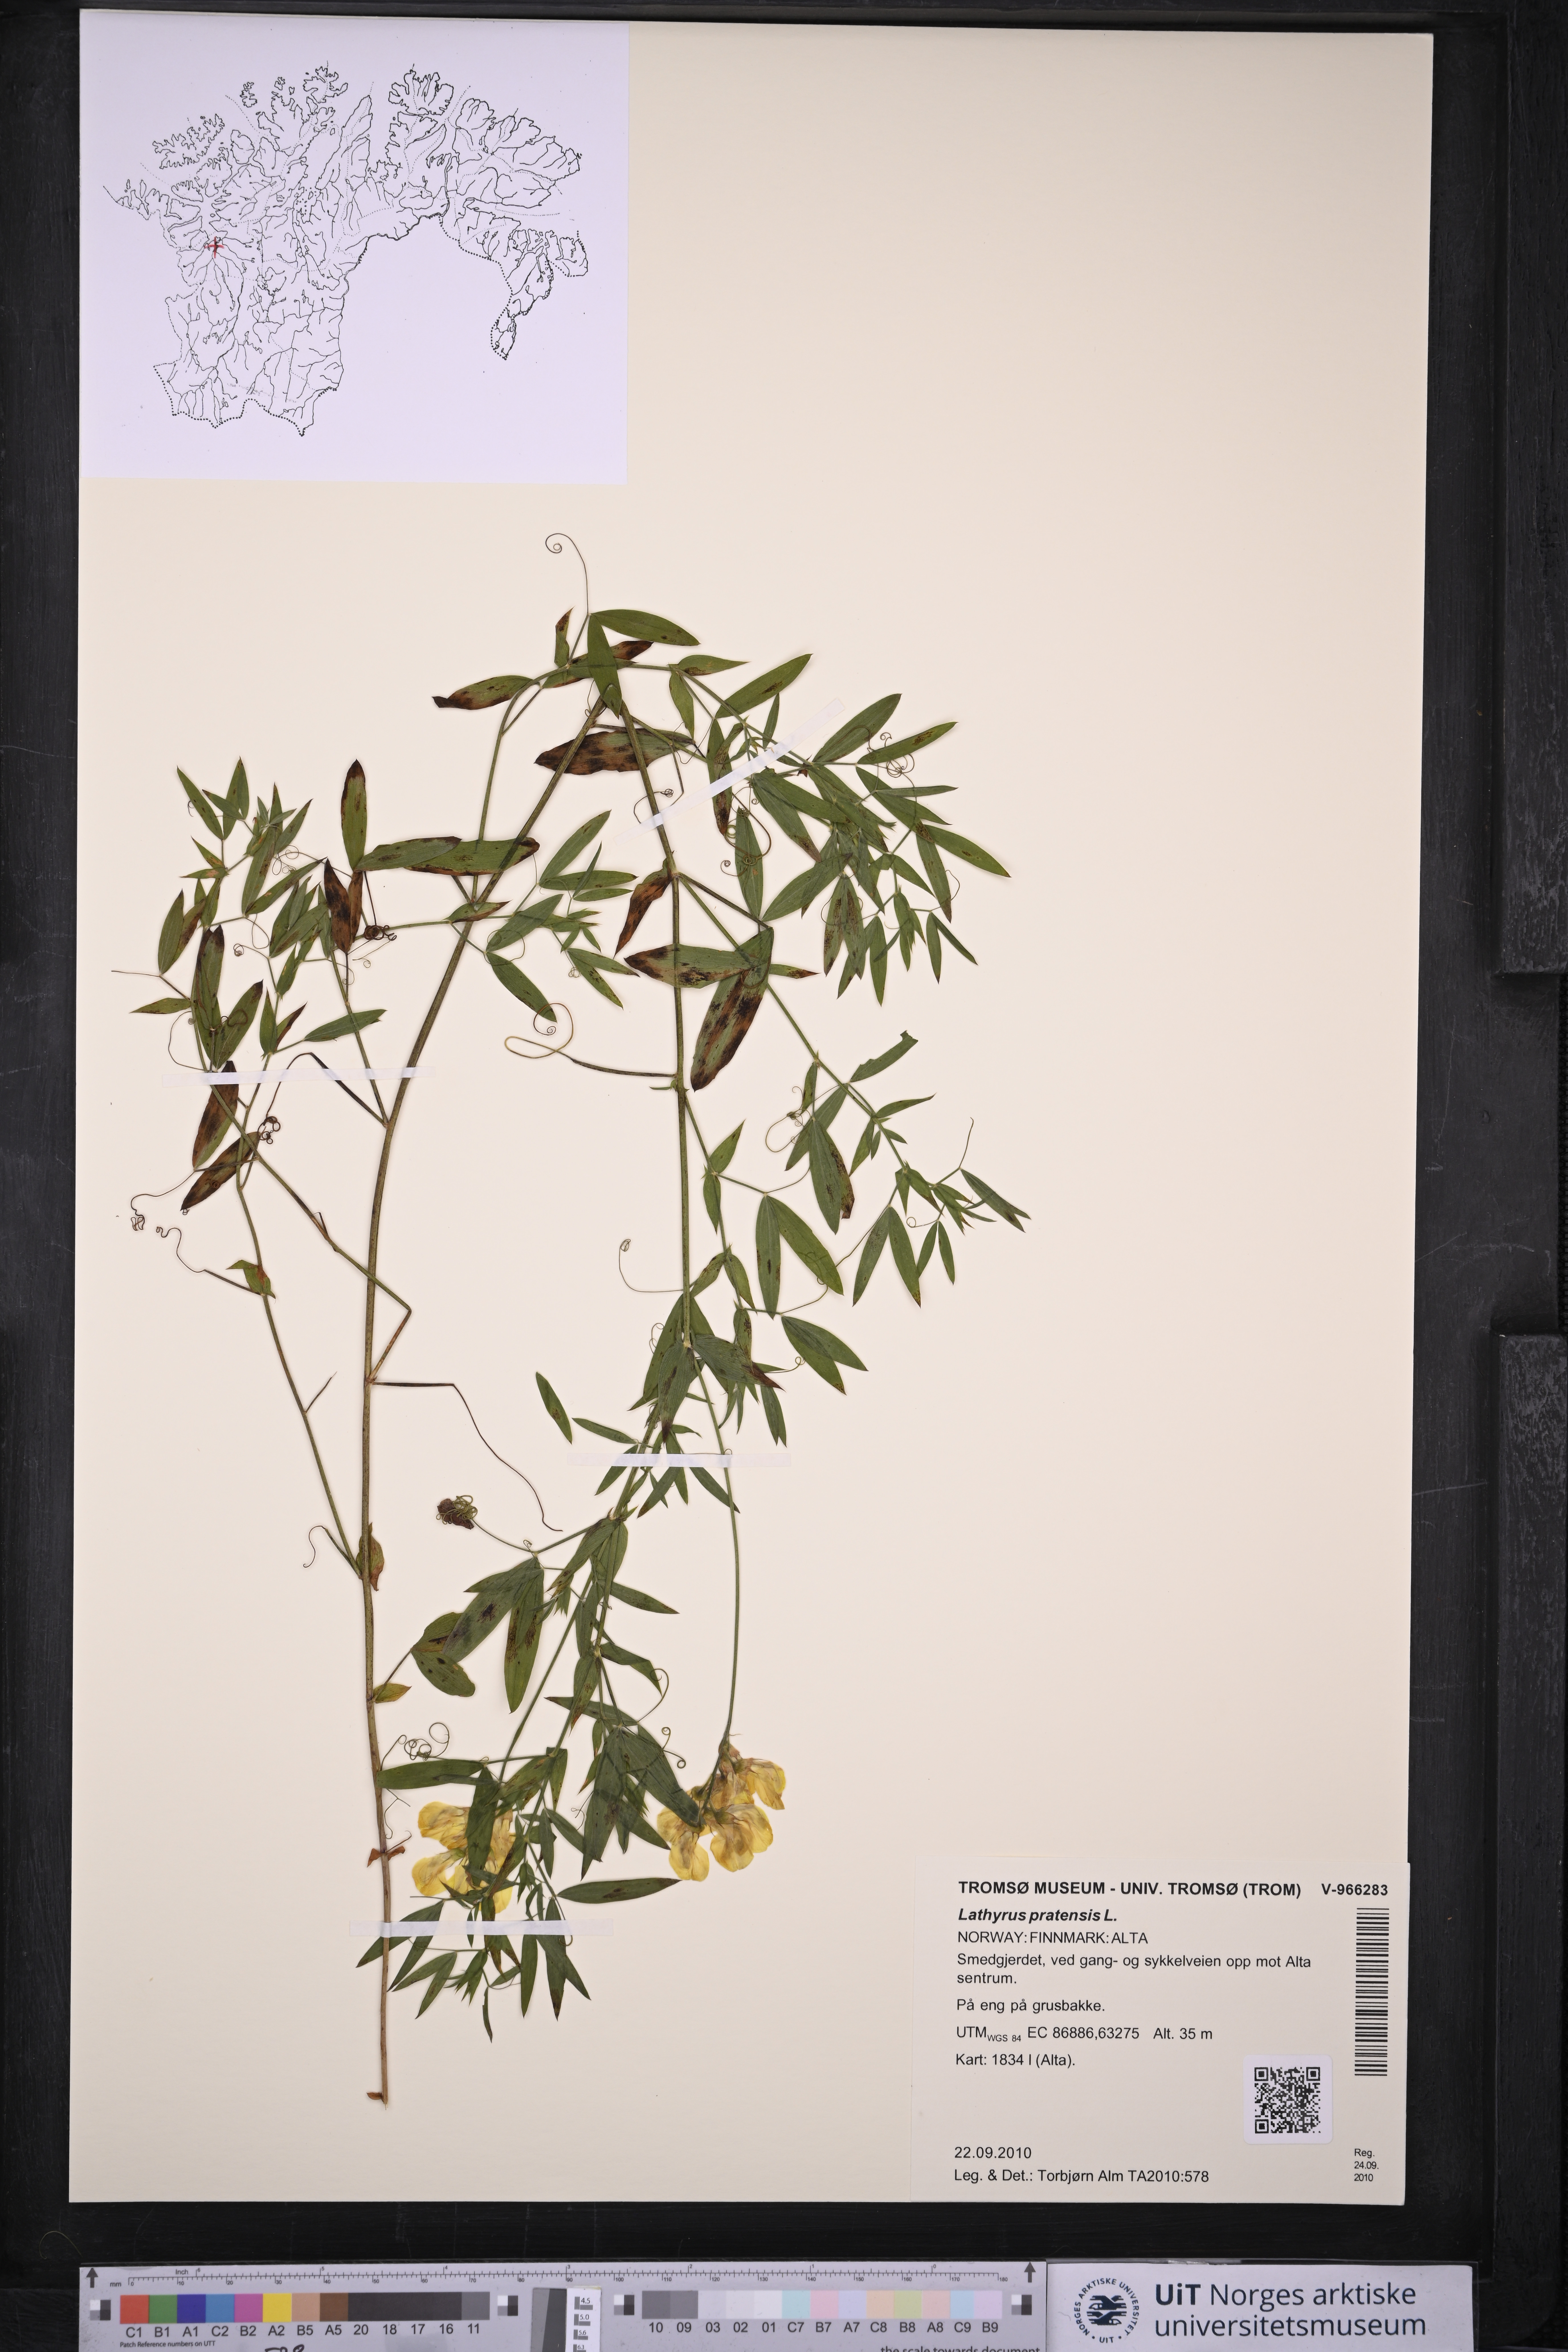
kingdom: Plantae
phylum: Tracheophyta
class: Magnoliopsida
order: Fabales
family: Fabaceae
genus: Lathyrus
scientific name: Lathyrus pratensis
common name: Meadow vetchling
